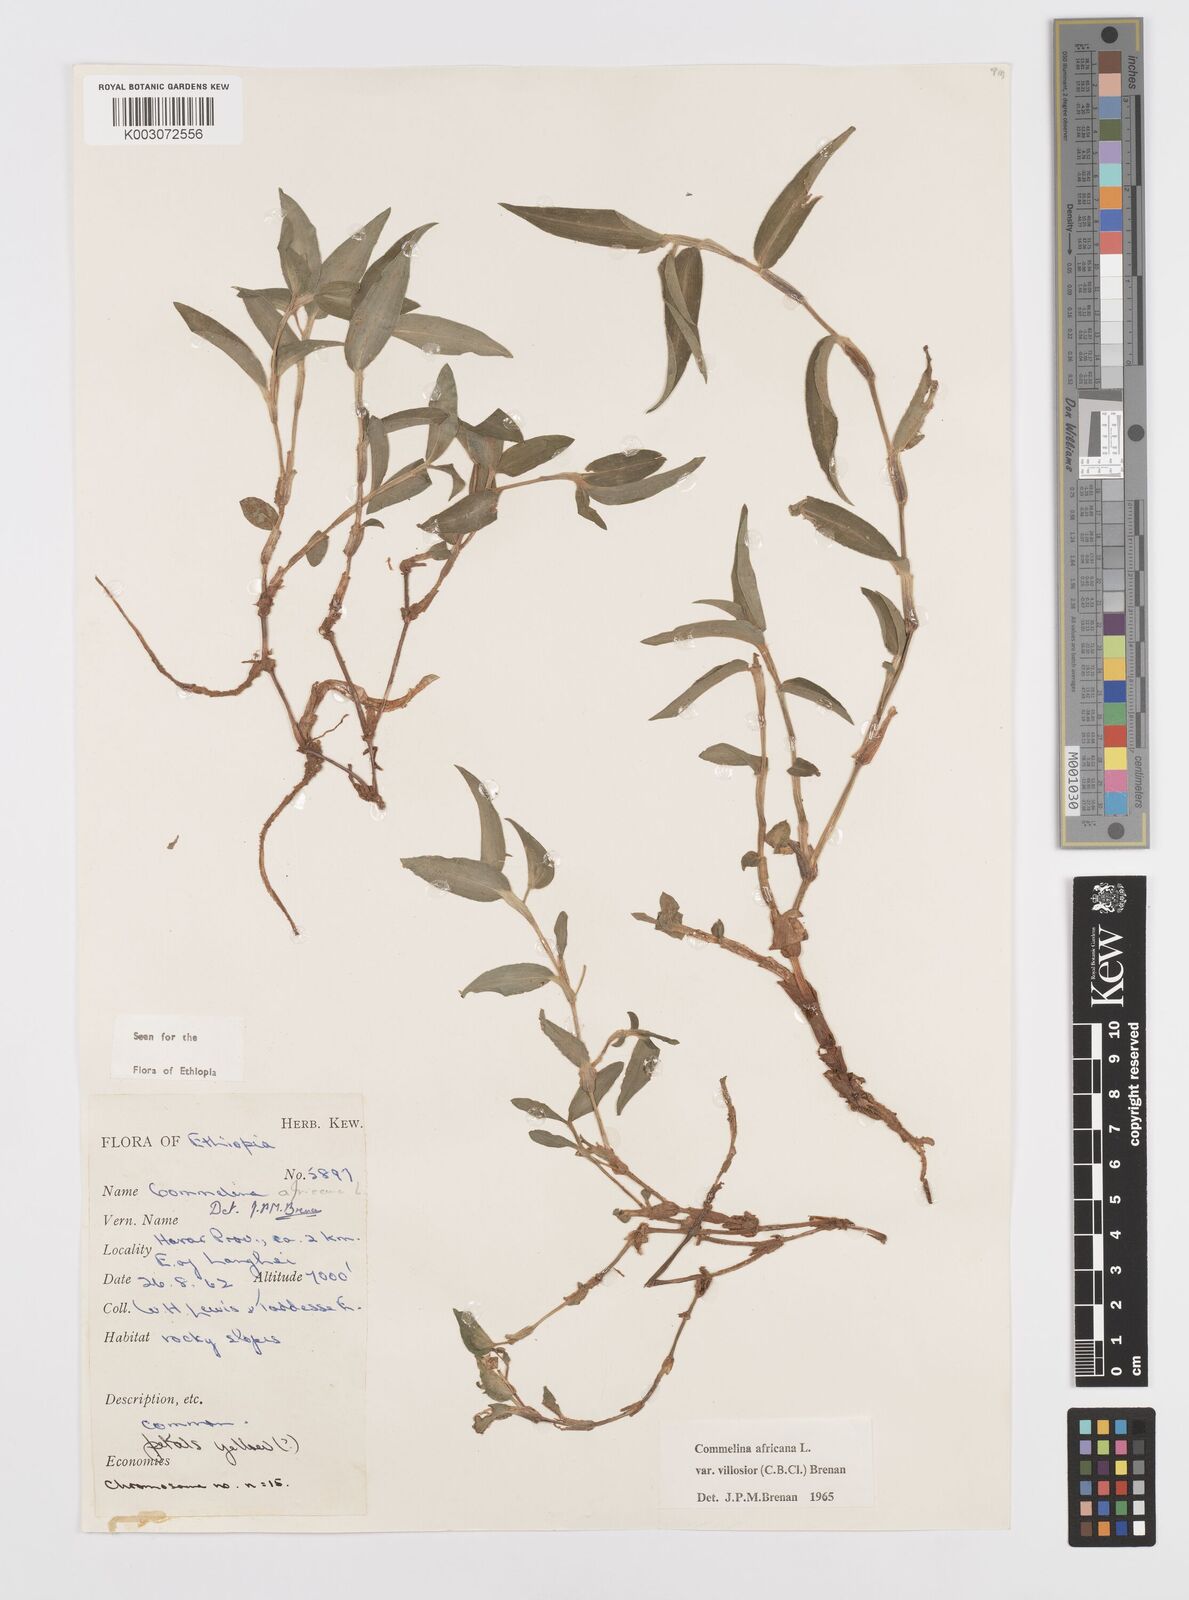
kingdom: Plantae
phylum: Tracheophyta
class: Liliopsida
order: Commelinales
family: Commelinaceae
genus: Commelina
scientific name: Commelina africana
